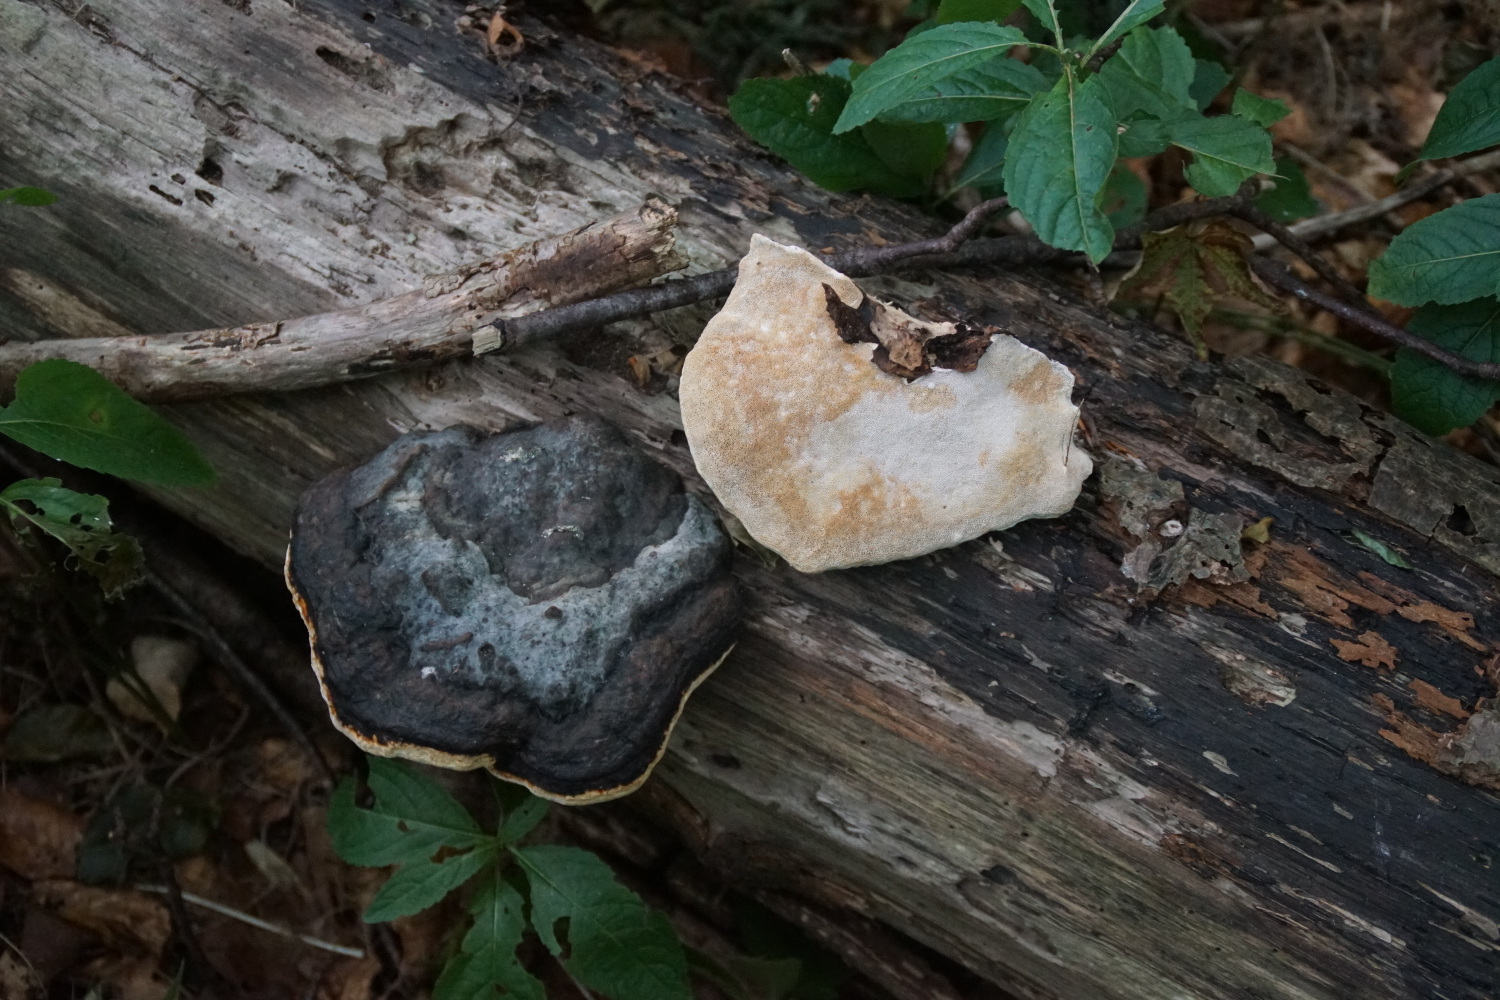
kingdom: Fungi
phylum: Basidiomycota
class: Agaricomycetes
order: Polyporales
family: Fomitopsidaceae
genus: Fomitopsis
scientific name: Fomitopsis pinicola
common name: randbæltet hovporesvamp
